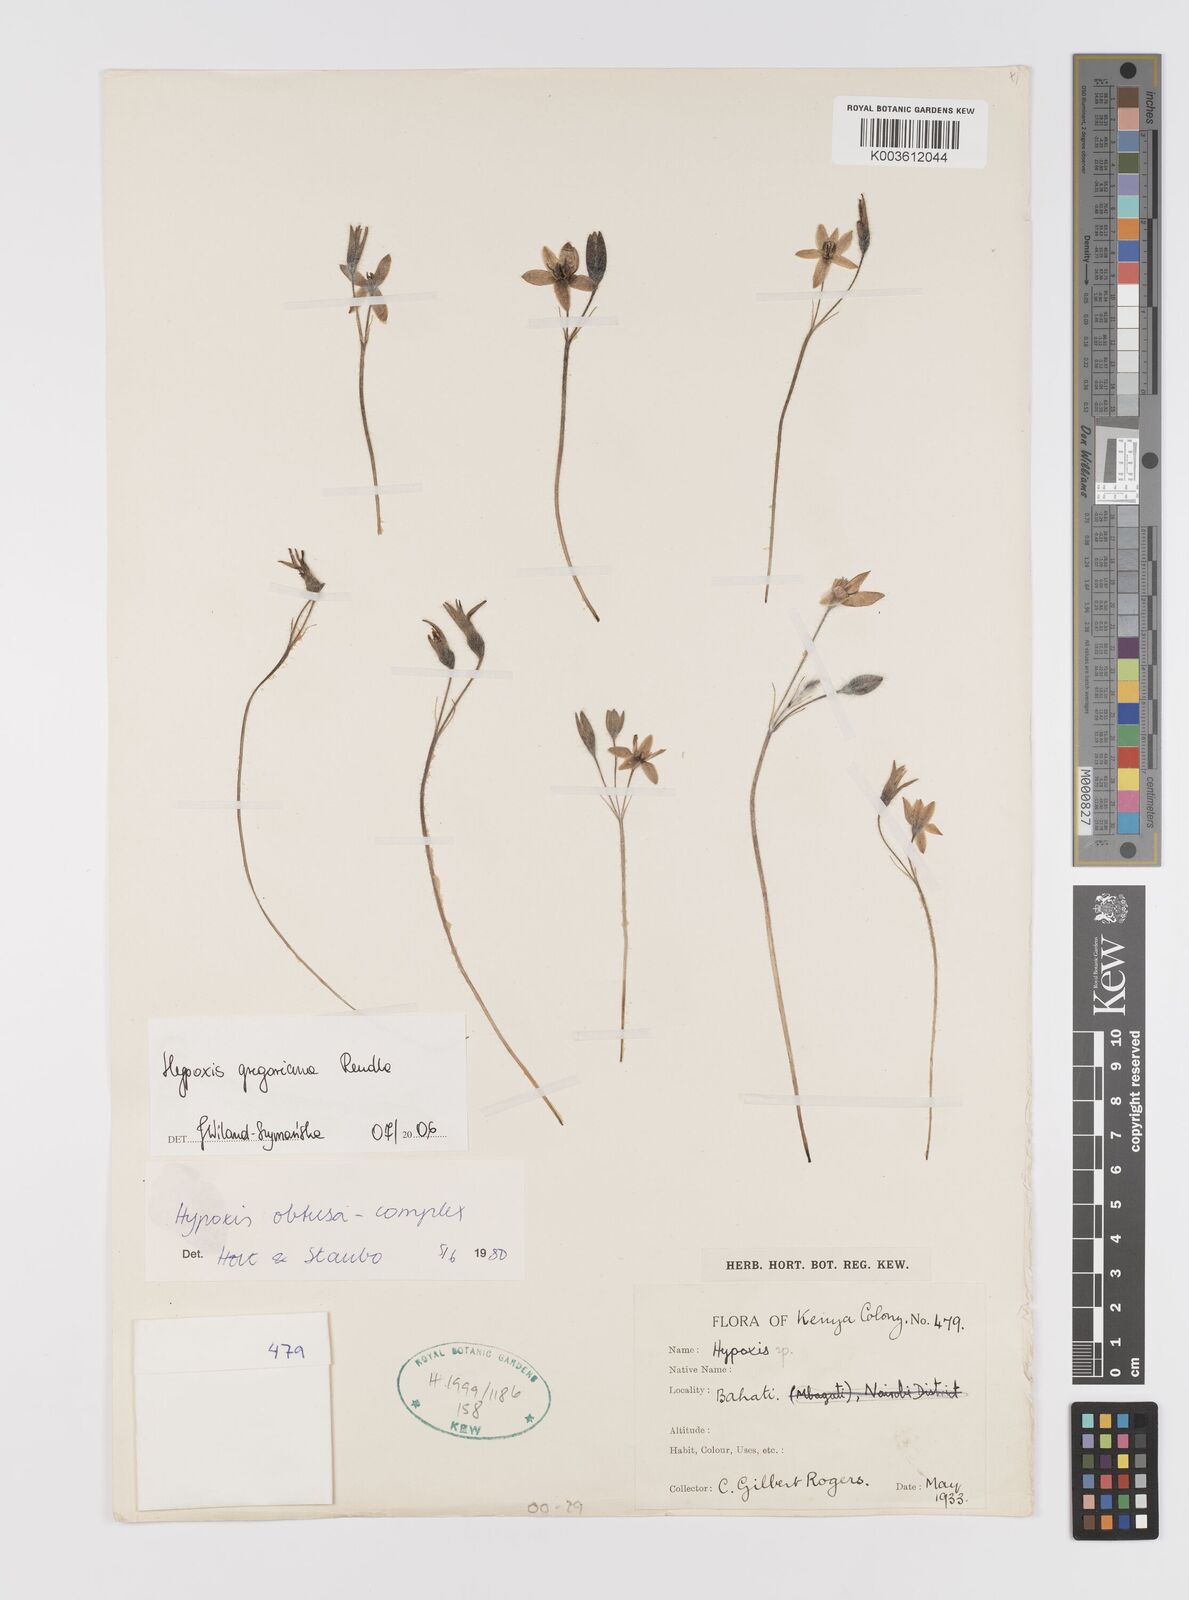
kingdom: Plantae
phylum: Tracheophyta
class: Liliopsida
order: Asparagales
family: Hypoxidaceae
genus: Hypoxis
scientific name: Hypoxis gregoriana
